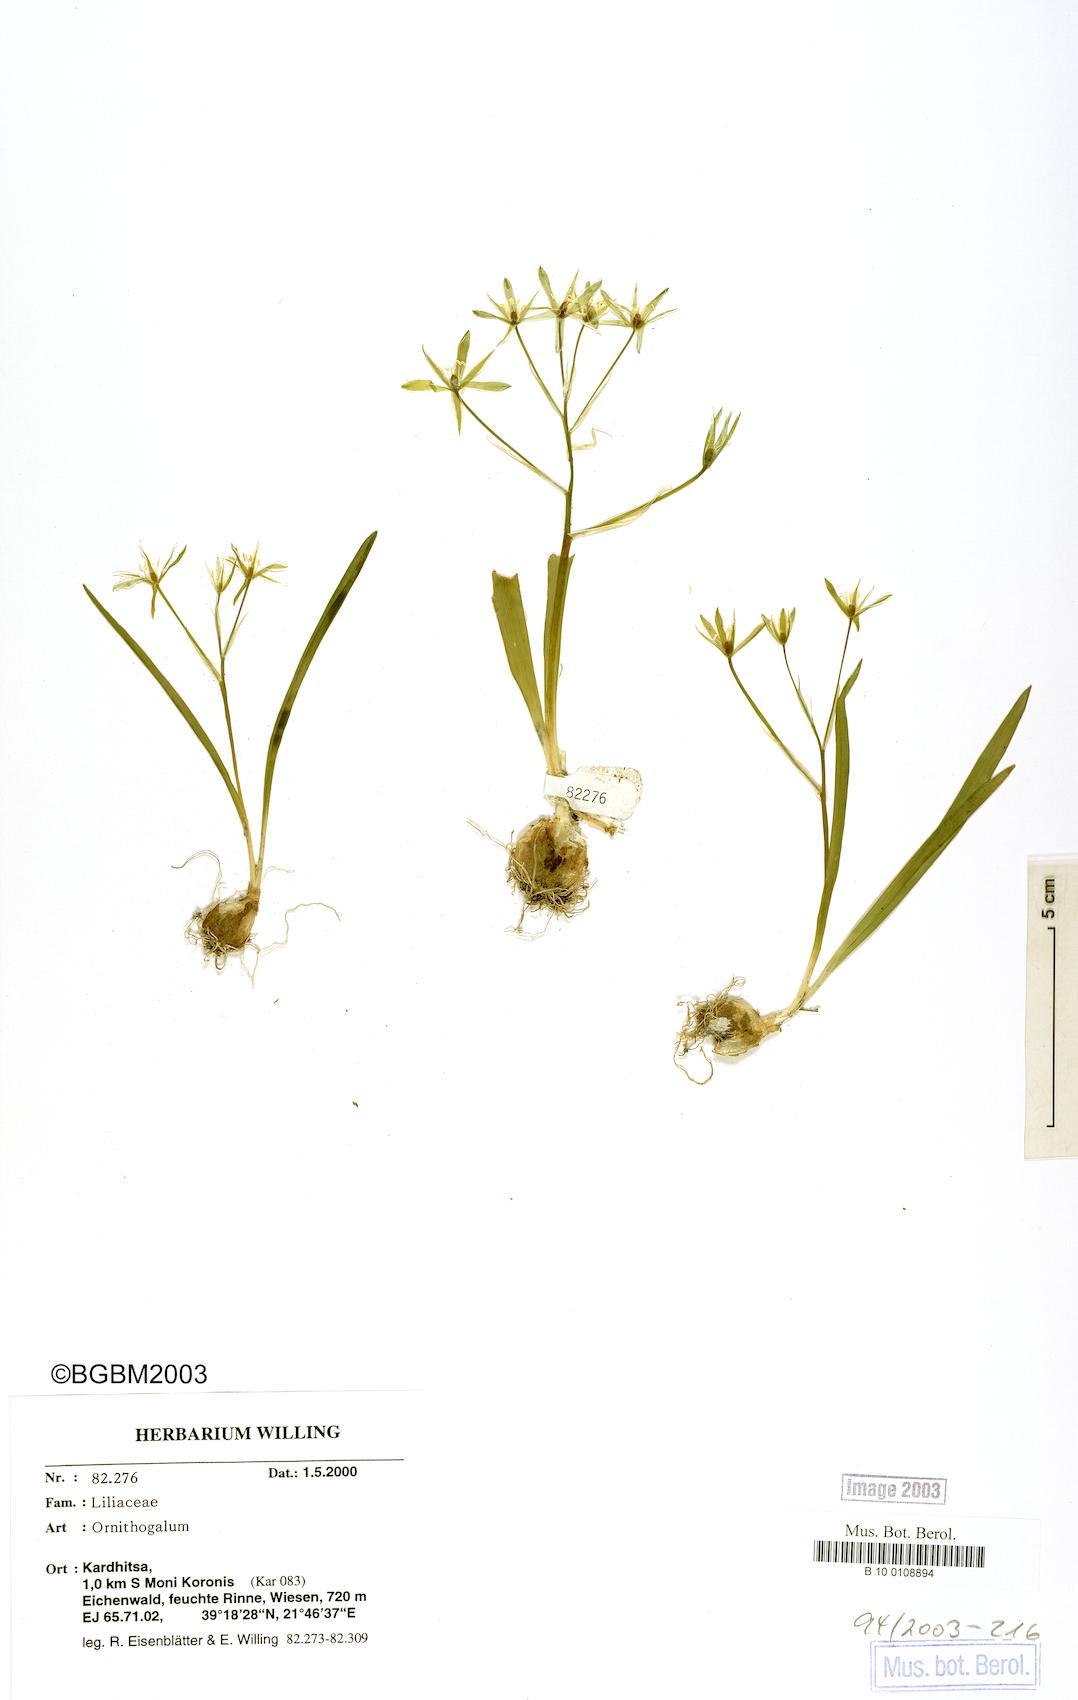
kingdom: Plantae
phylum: Tracheophyta
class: Liliopsida
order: Asparagales
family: Asparagaceae
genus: Ornithogalum
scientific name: Ornithogalum
